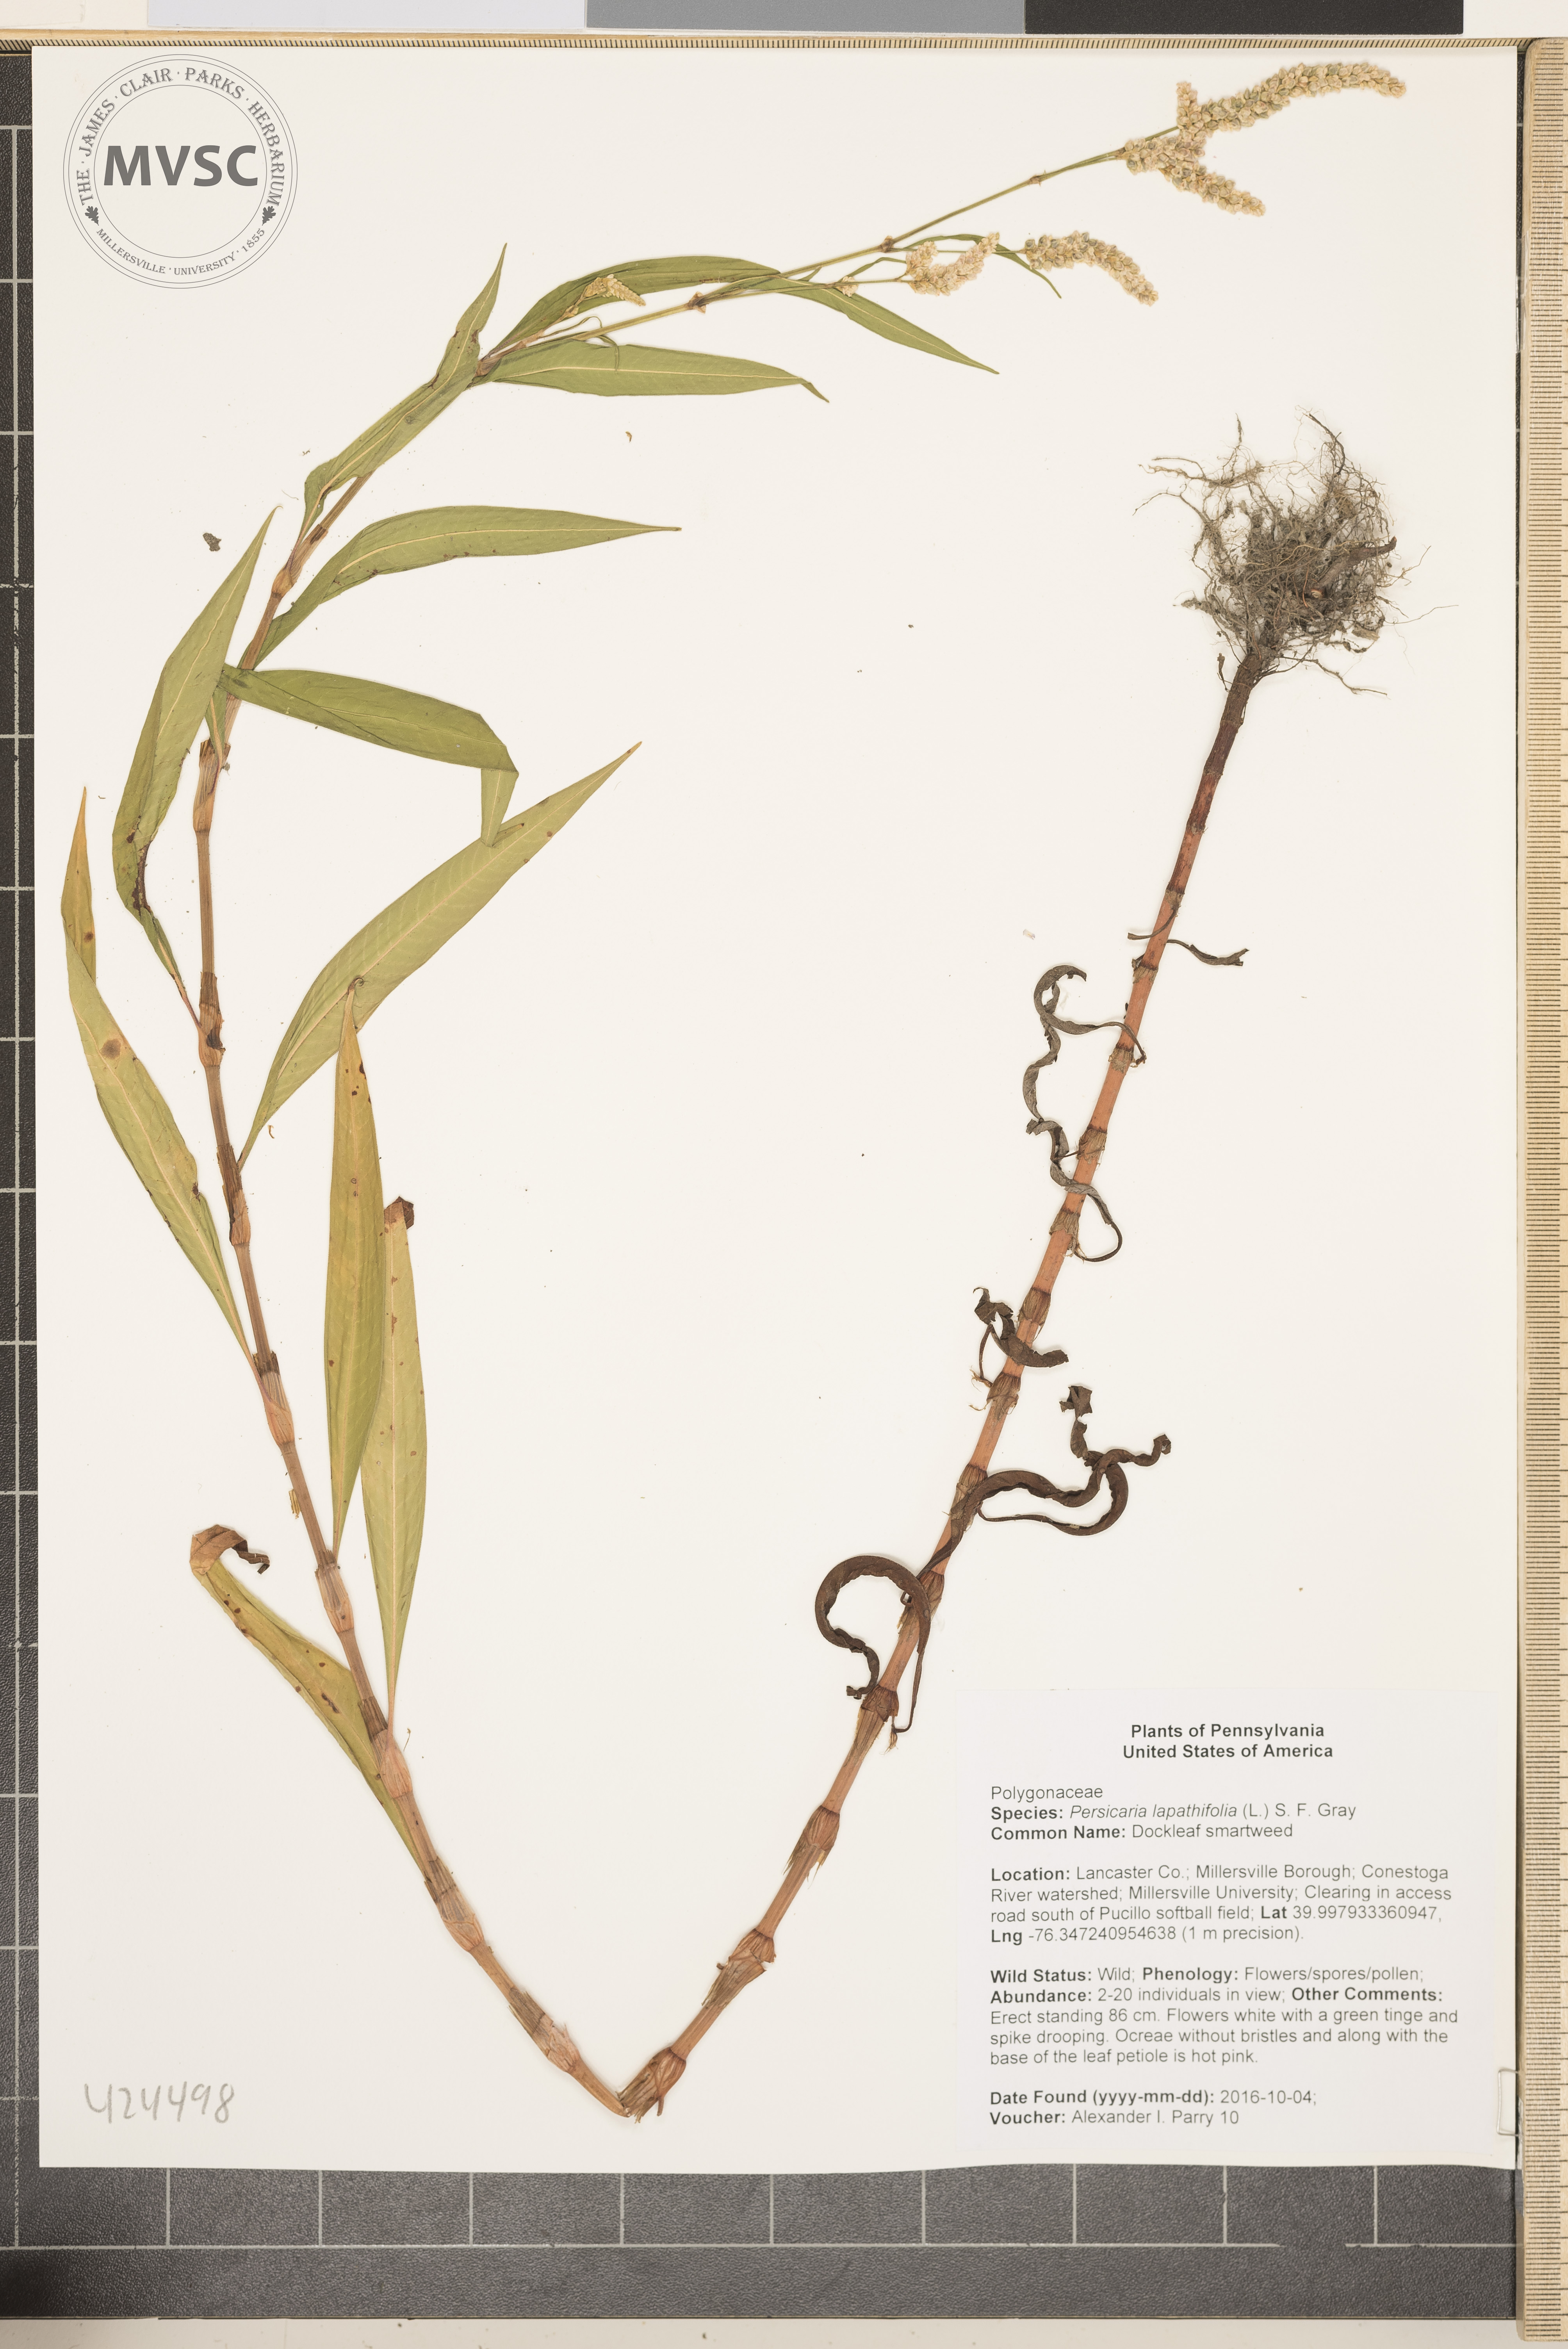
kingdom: Plantae
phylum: Tracheophyta
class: Magnoliopsida
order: Caryophyllales
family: Polygonaceae
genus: Persicaria
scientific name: Persicaria lapathifolia
